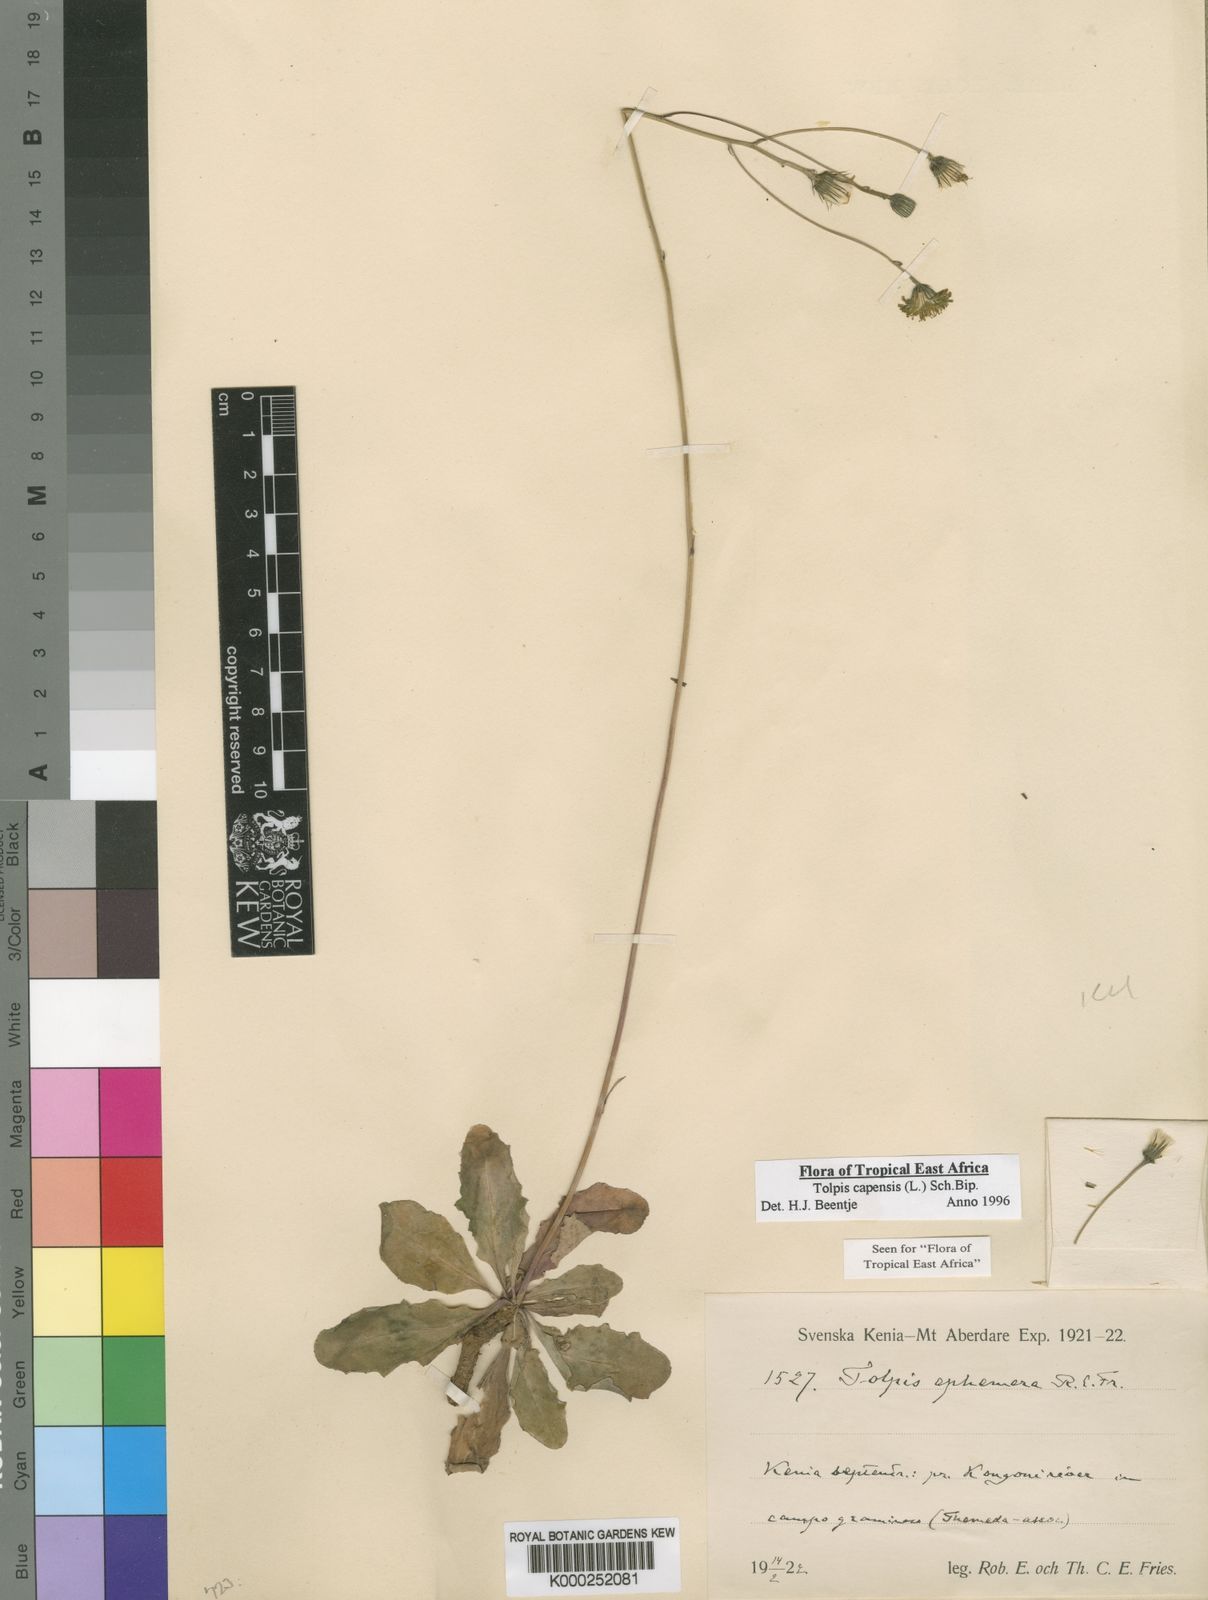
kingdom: Plantae
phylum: Tracheophyta
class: Magnoliopsida
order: Asterales
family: Asteraceae
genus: Tolpis
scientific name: Tolpis capensis
